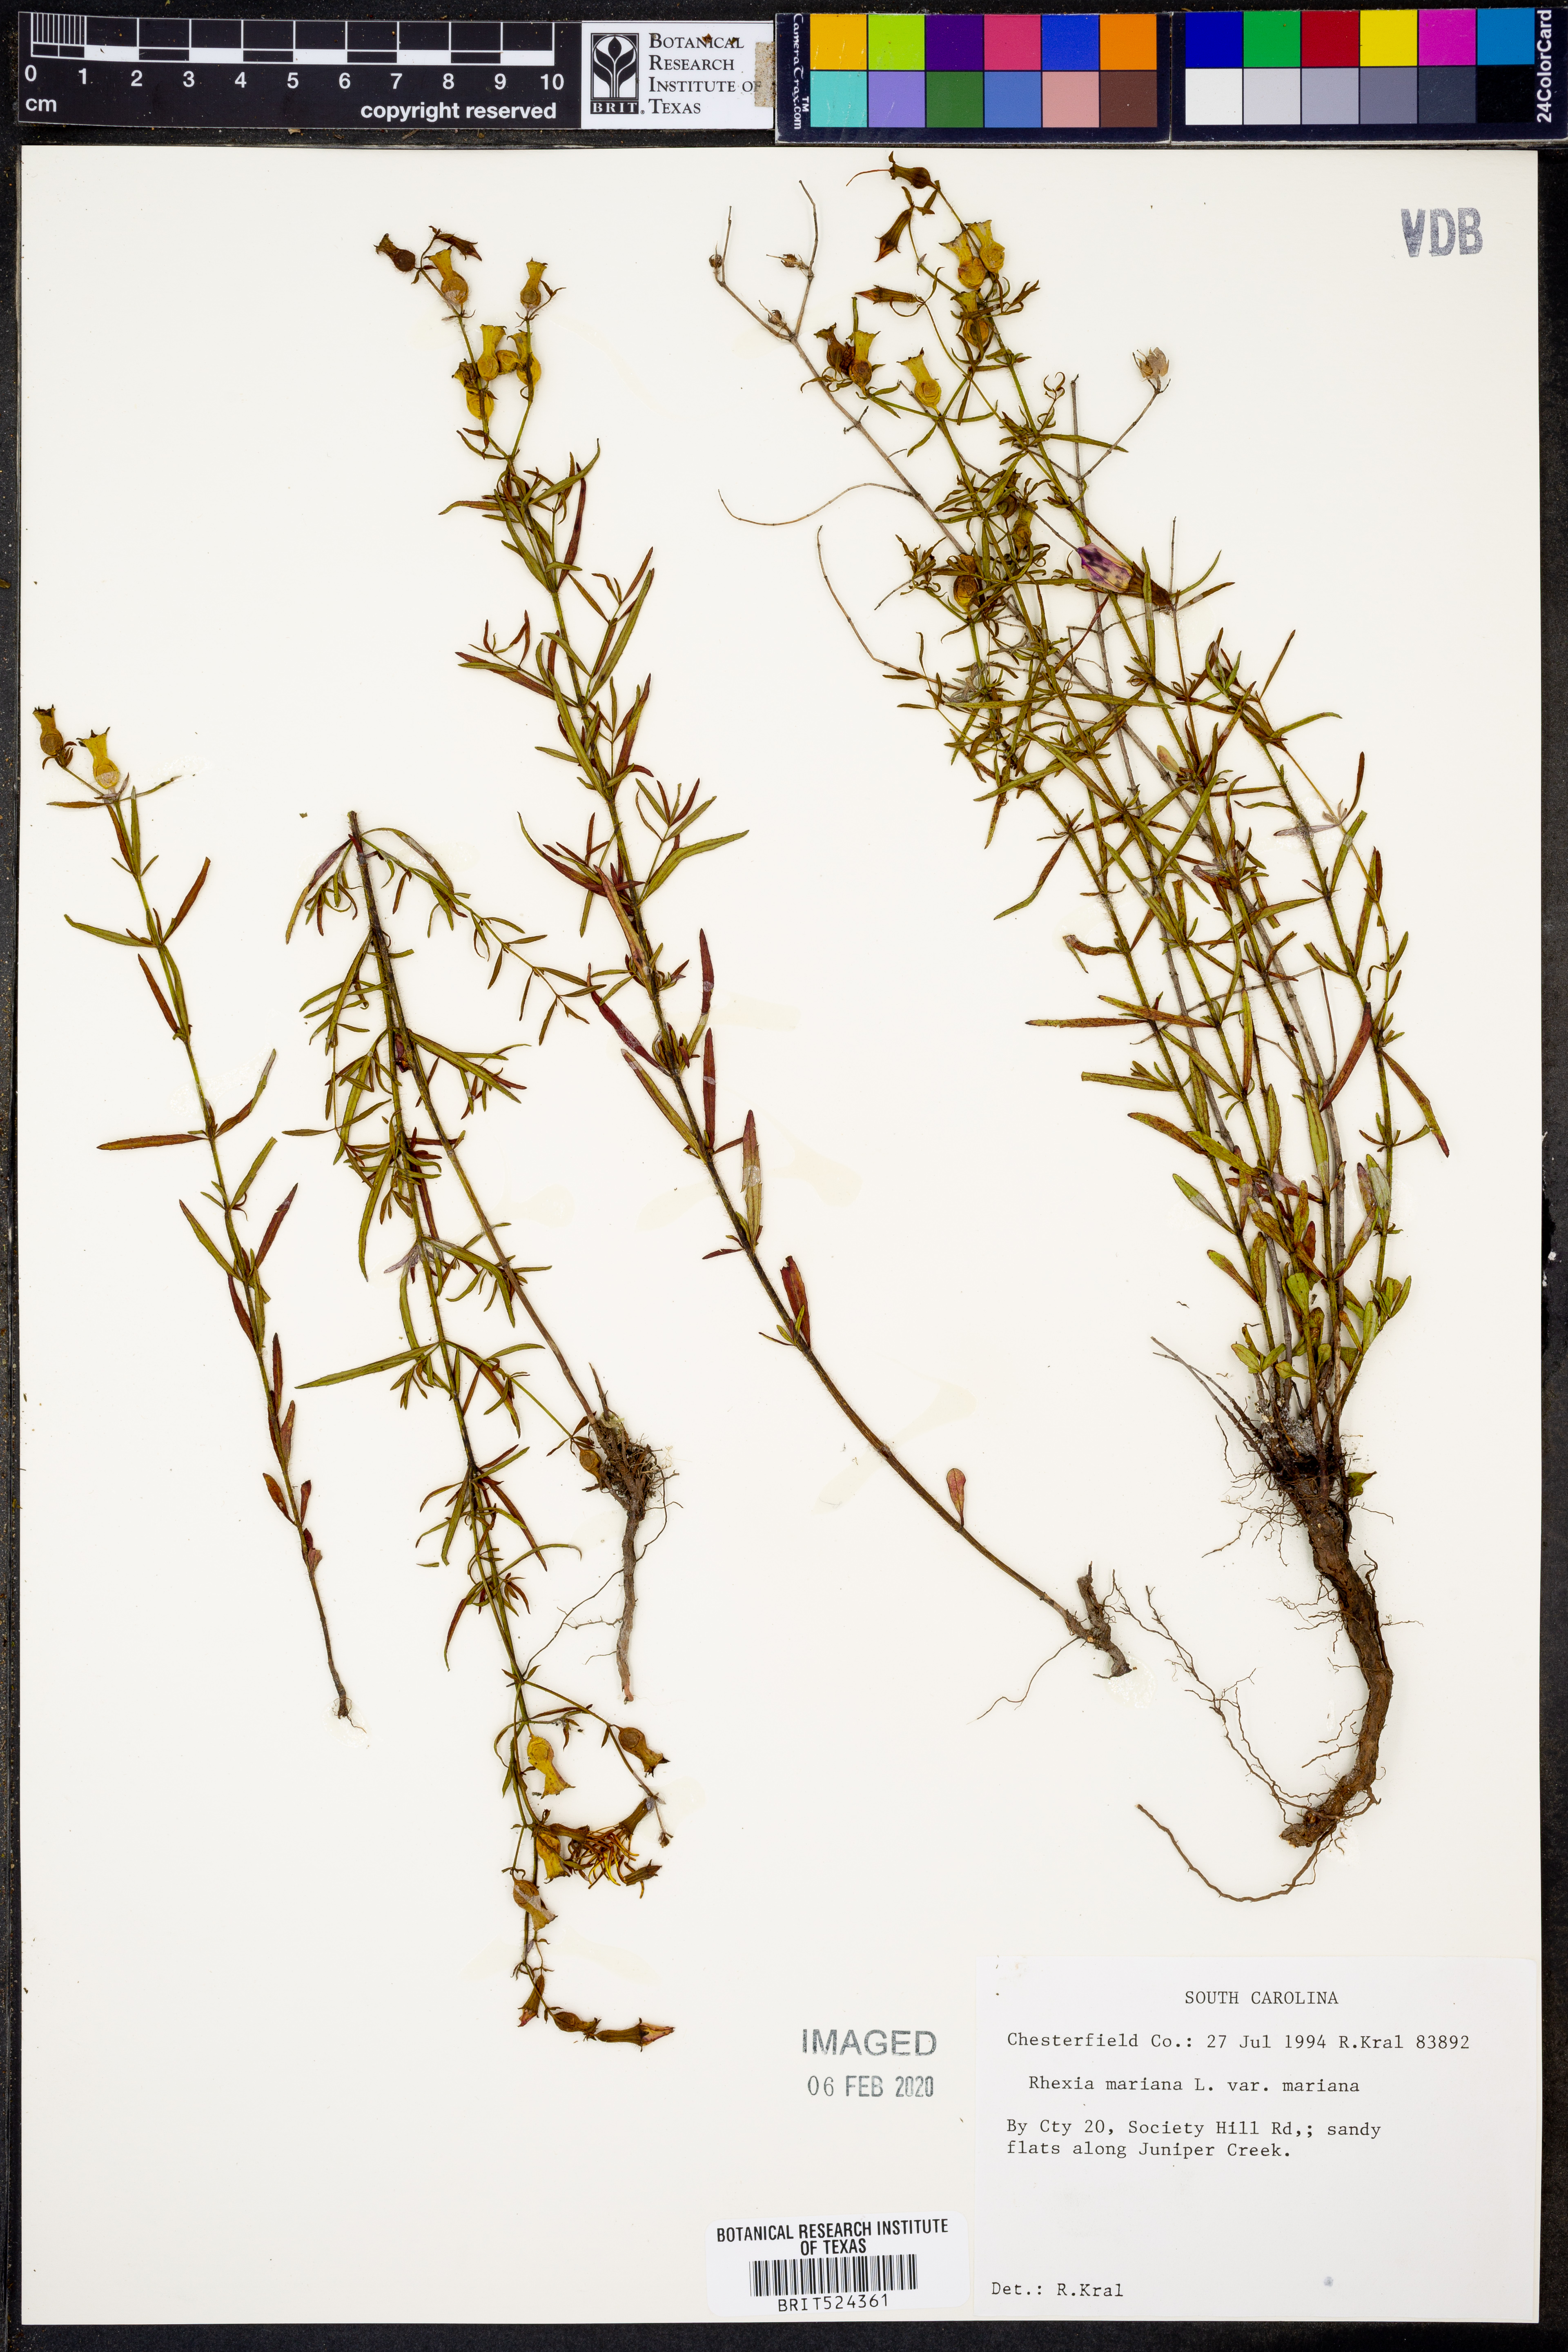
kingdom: Plantae
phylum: Tracheophyta
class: Magnoliopsida
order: Myrtales
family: Melastomataceae
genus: Rhexia
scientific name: Rhexia mariana
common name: Dull meadow-pitcher
